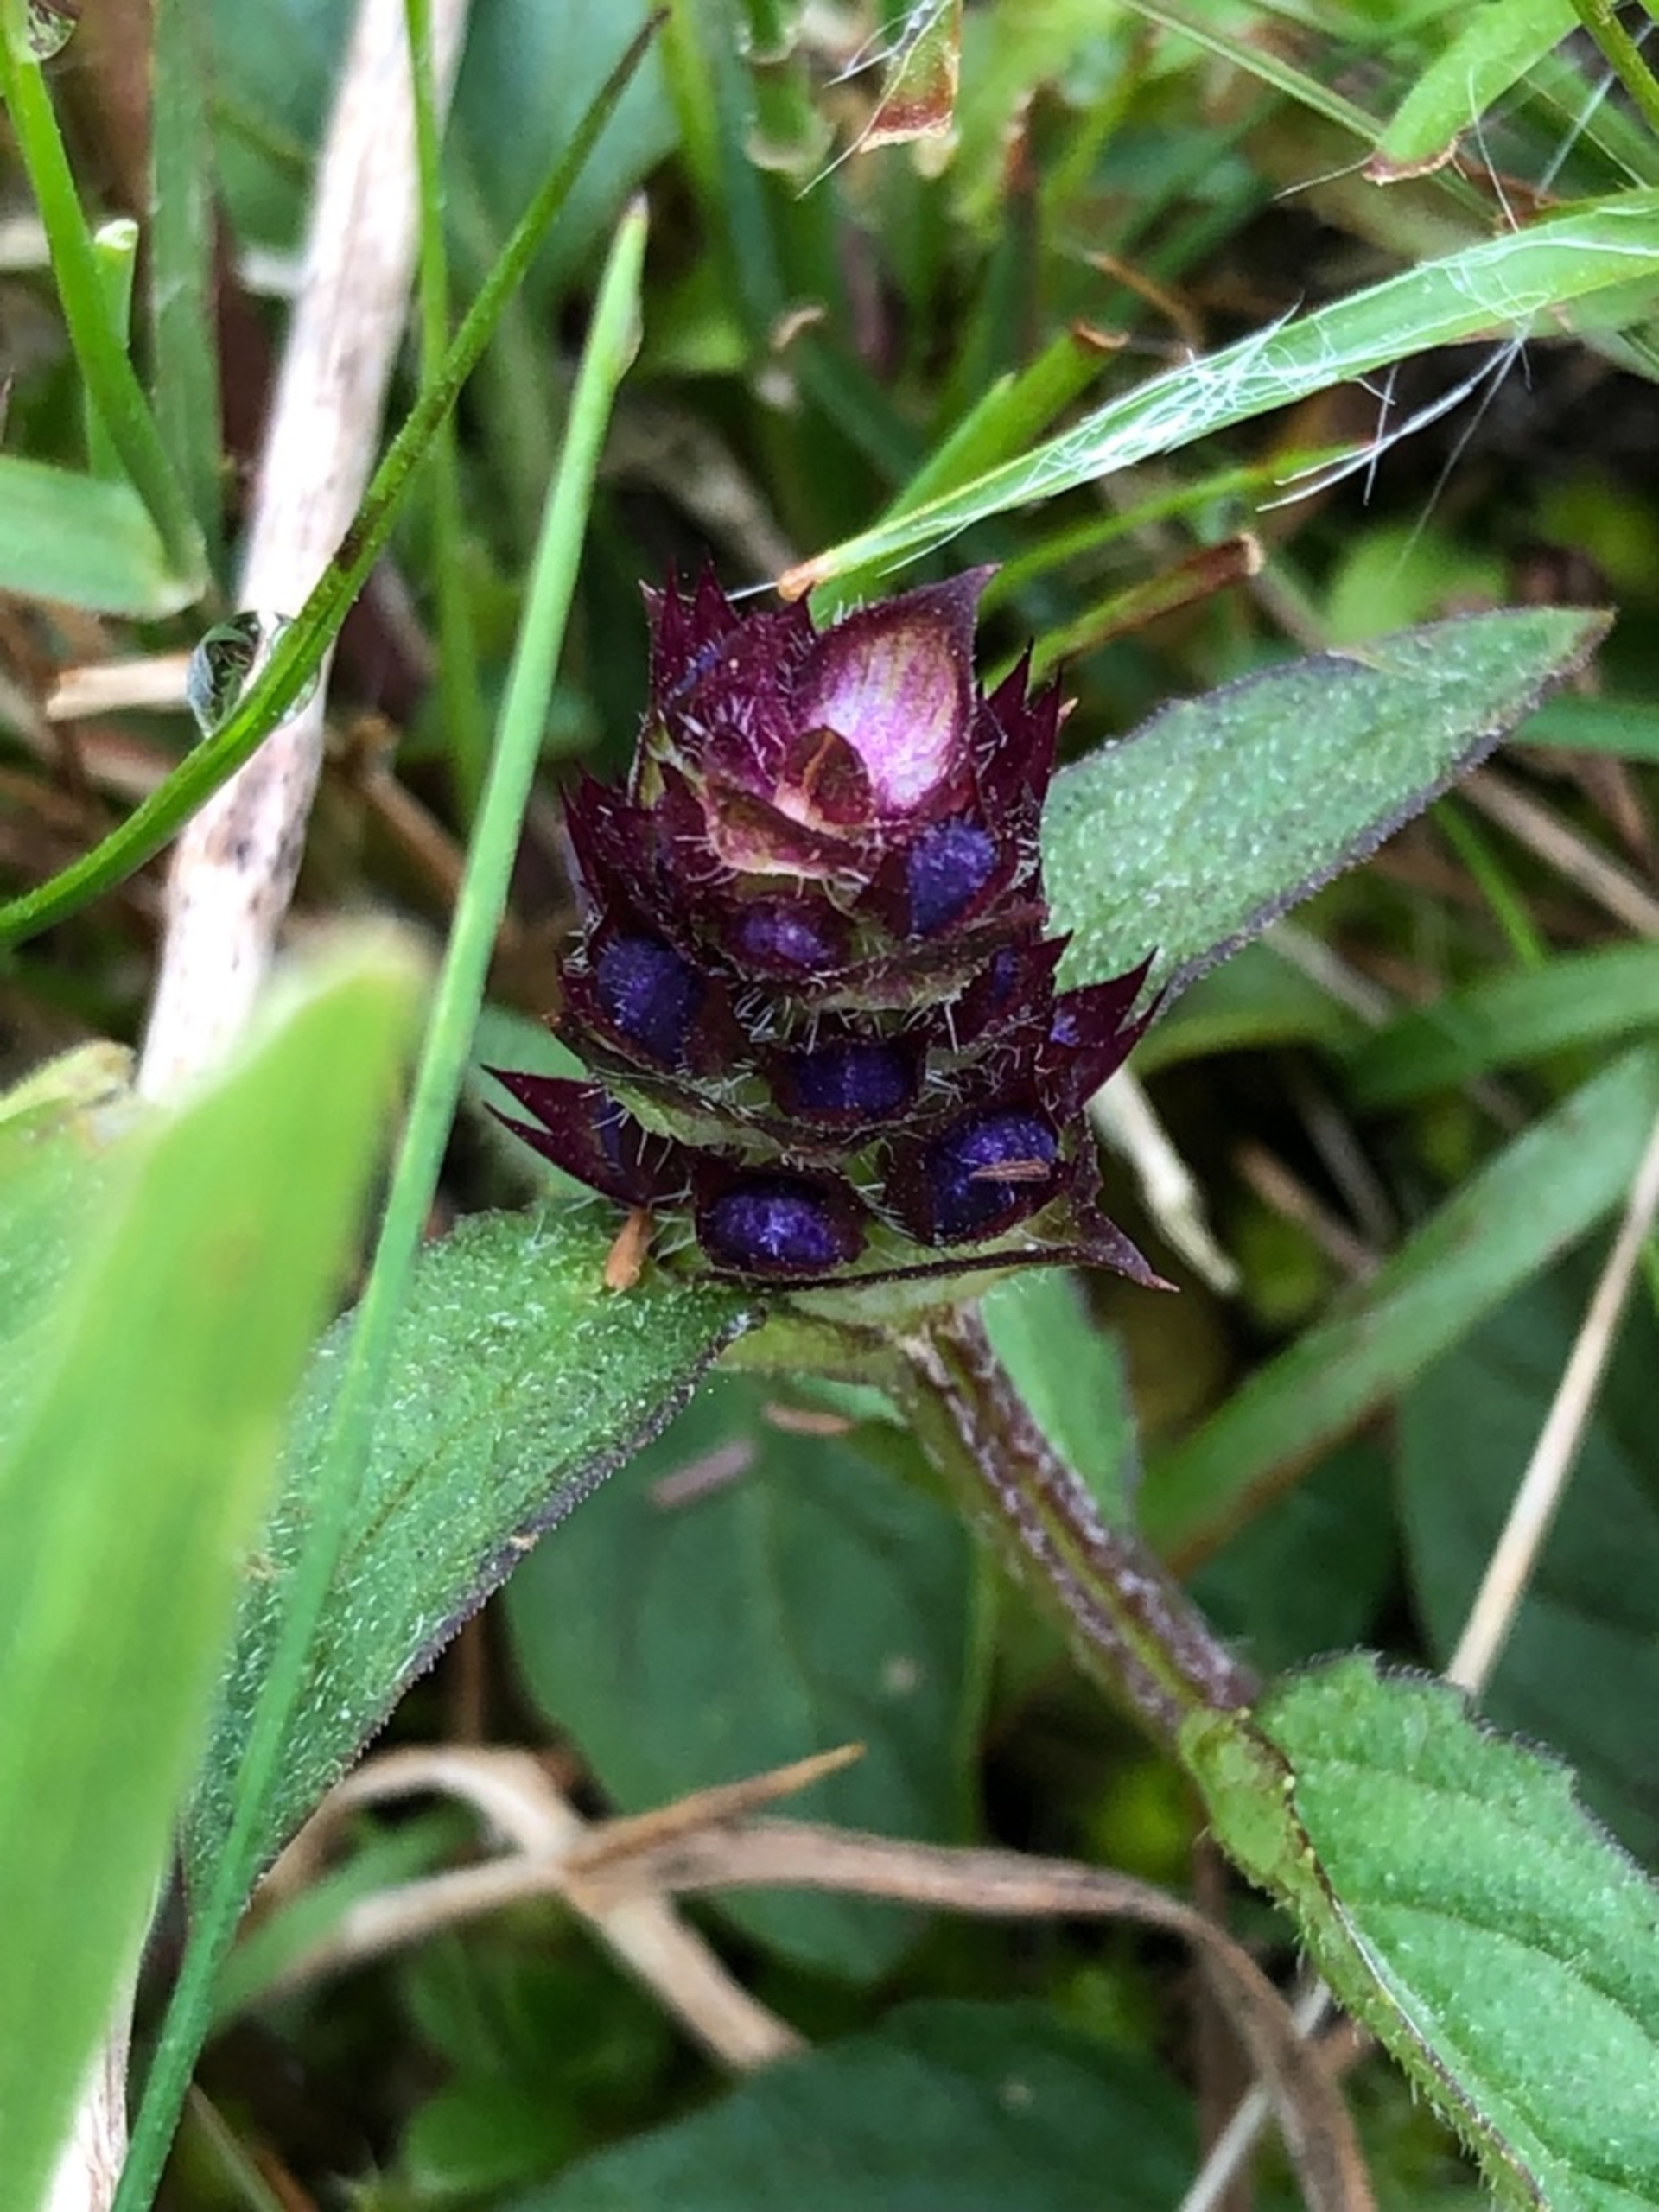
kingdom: Plantae
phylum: Tracheophyta
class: Magnoliopsida
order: Lamiales
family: Lamiaceae
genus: Prunella
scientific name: Prunella vulgaris
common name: Almindelig brunelle
